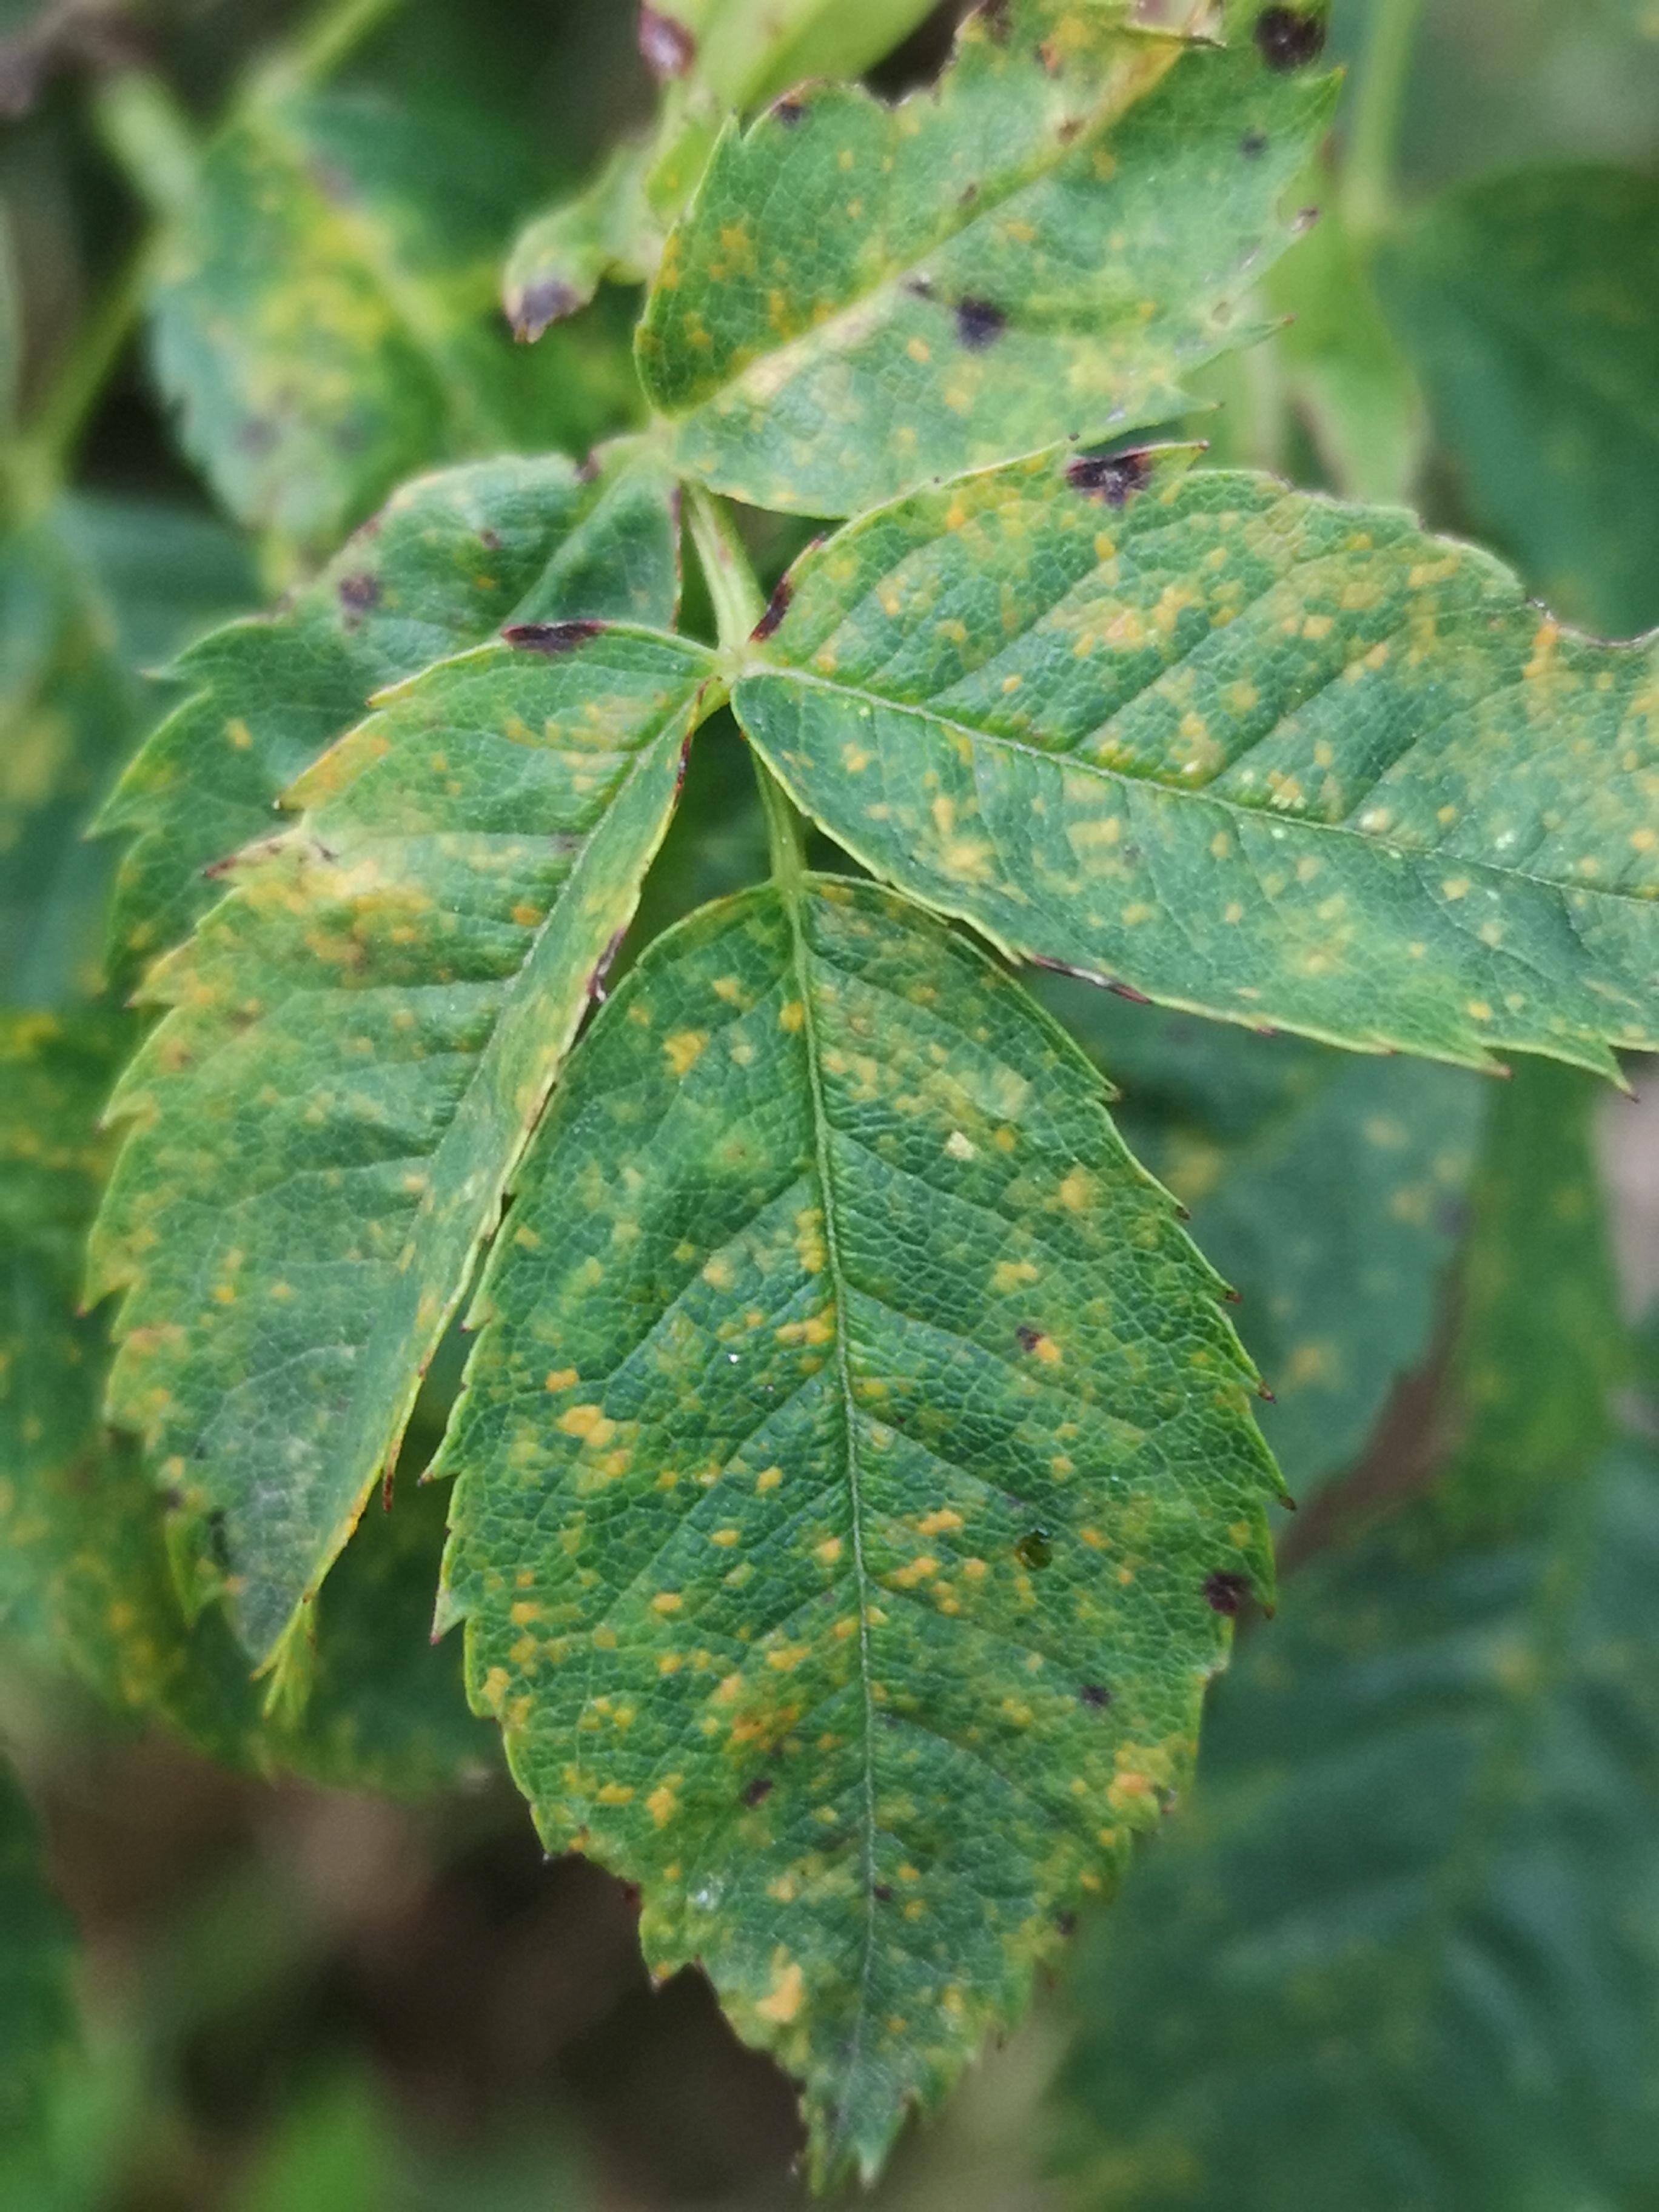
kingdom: Fungi
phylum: Basidiomycota
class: Pucciniomycetes
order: Pucciniales
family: Phragmidiaceae
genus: Phragmidium
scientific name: Phragmidium
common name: flercellerust
